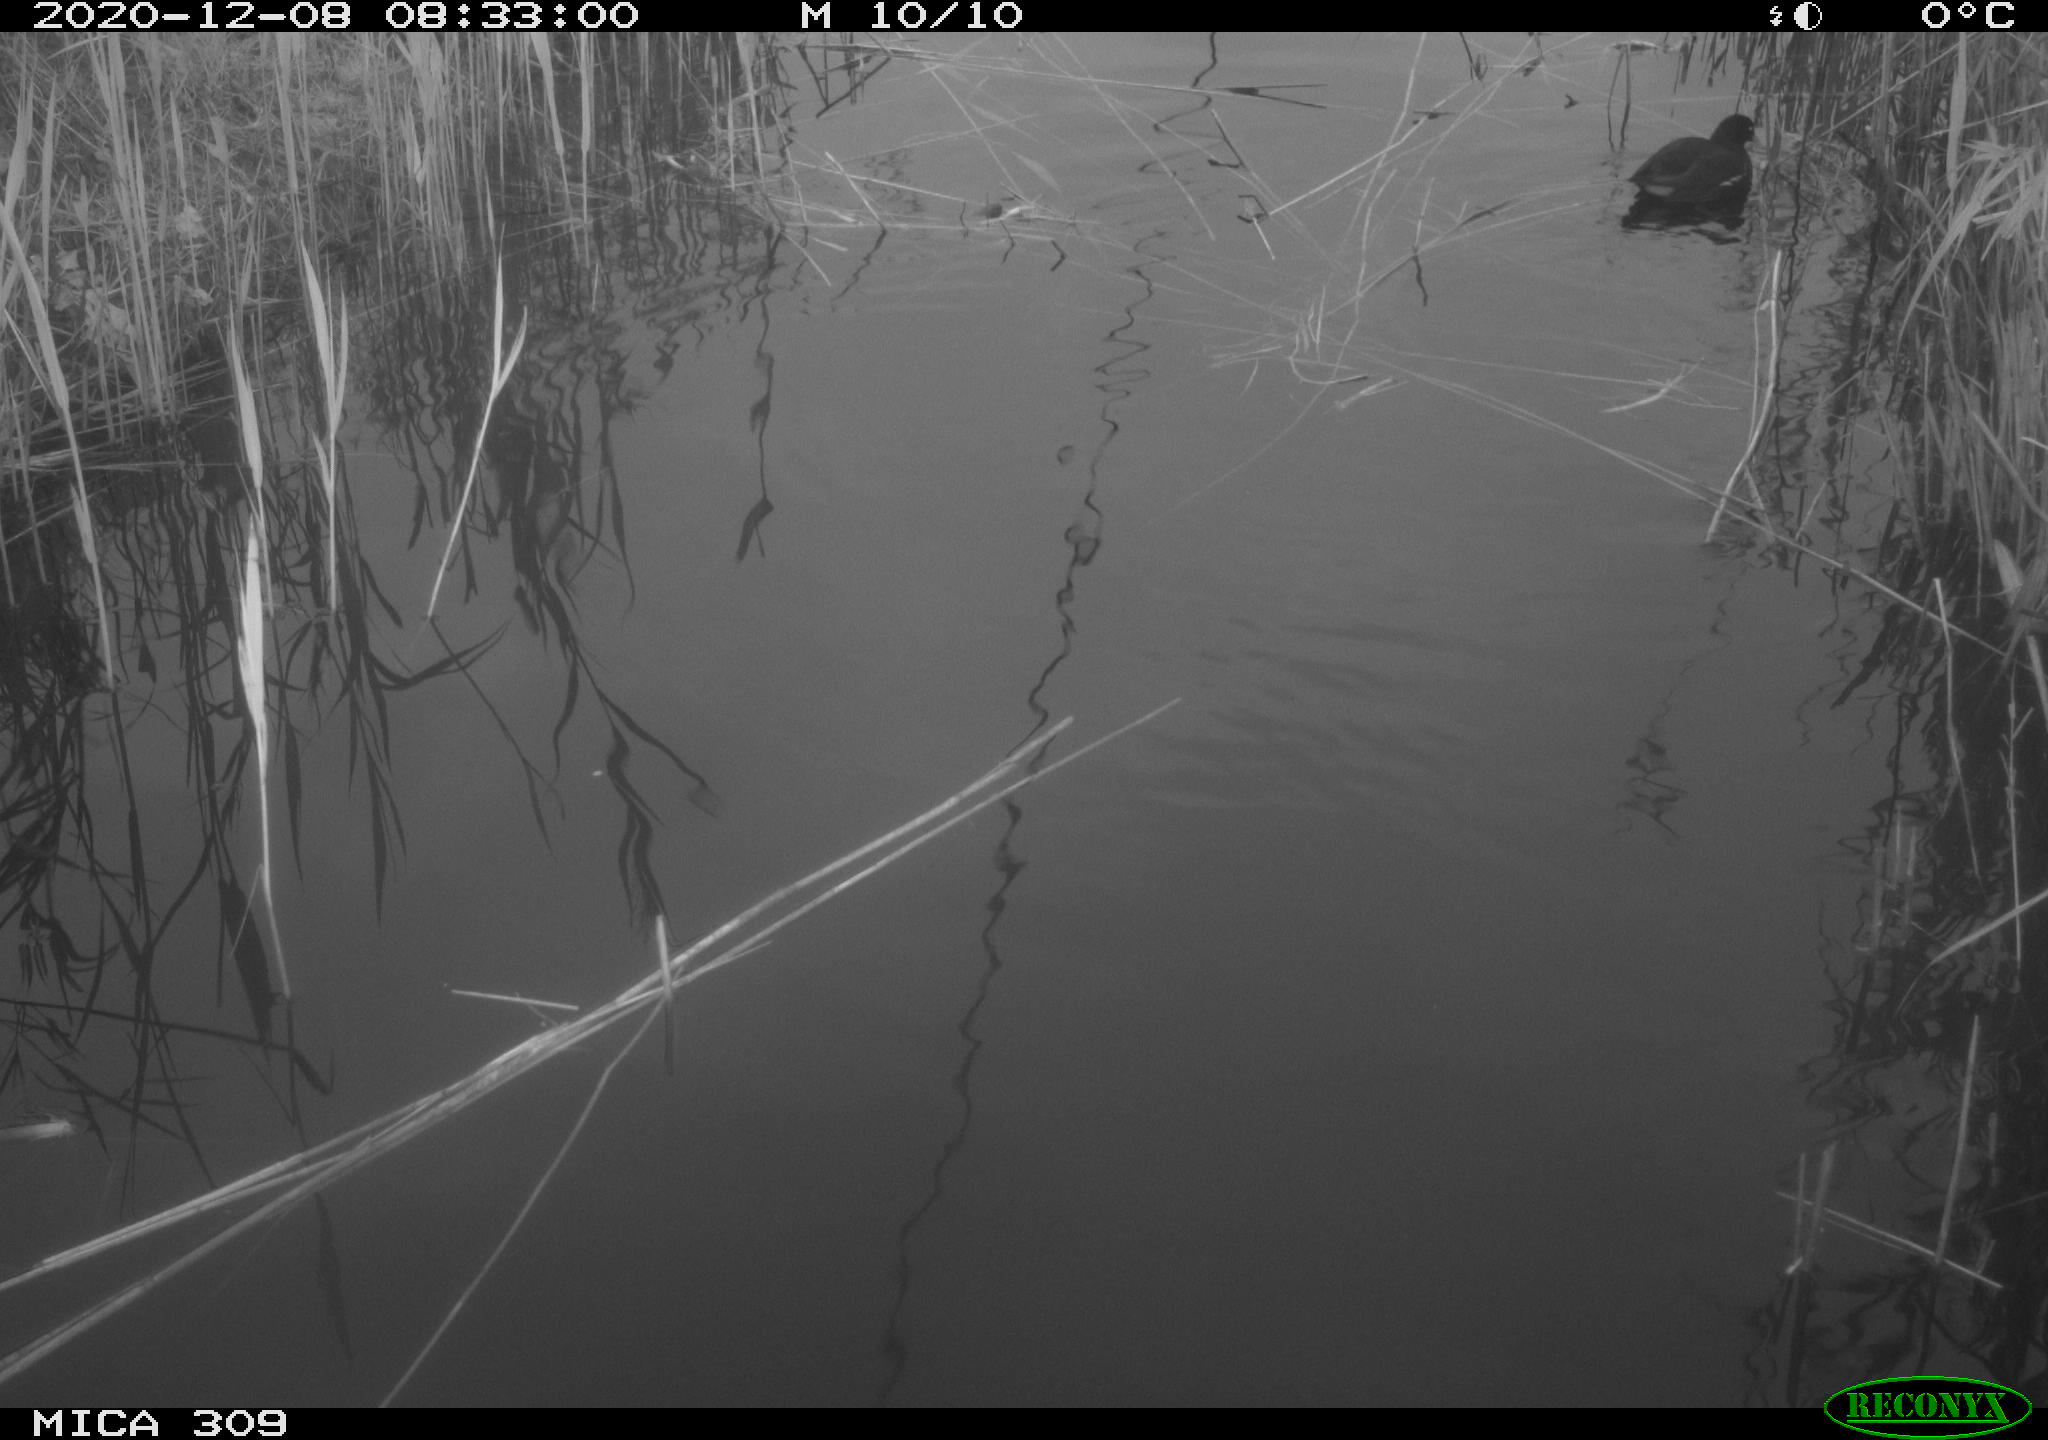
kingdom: Animalia
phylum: Chordata
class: Aves
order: Gruiformes
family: Rallidae
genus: Gallinula
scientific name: Gallinula chloropus
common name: Common moorhen
